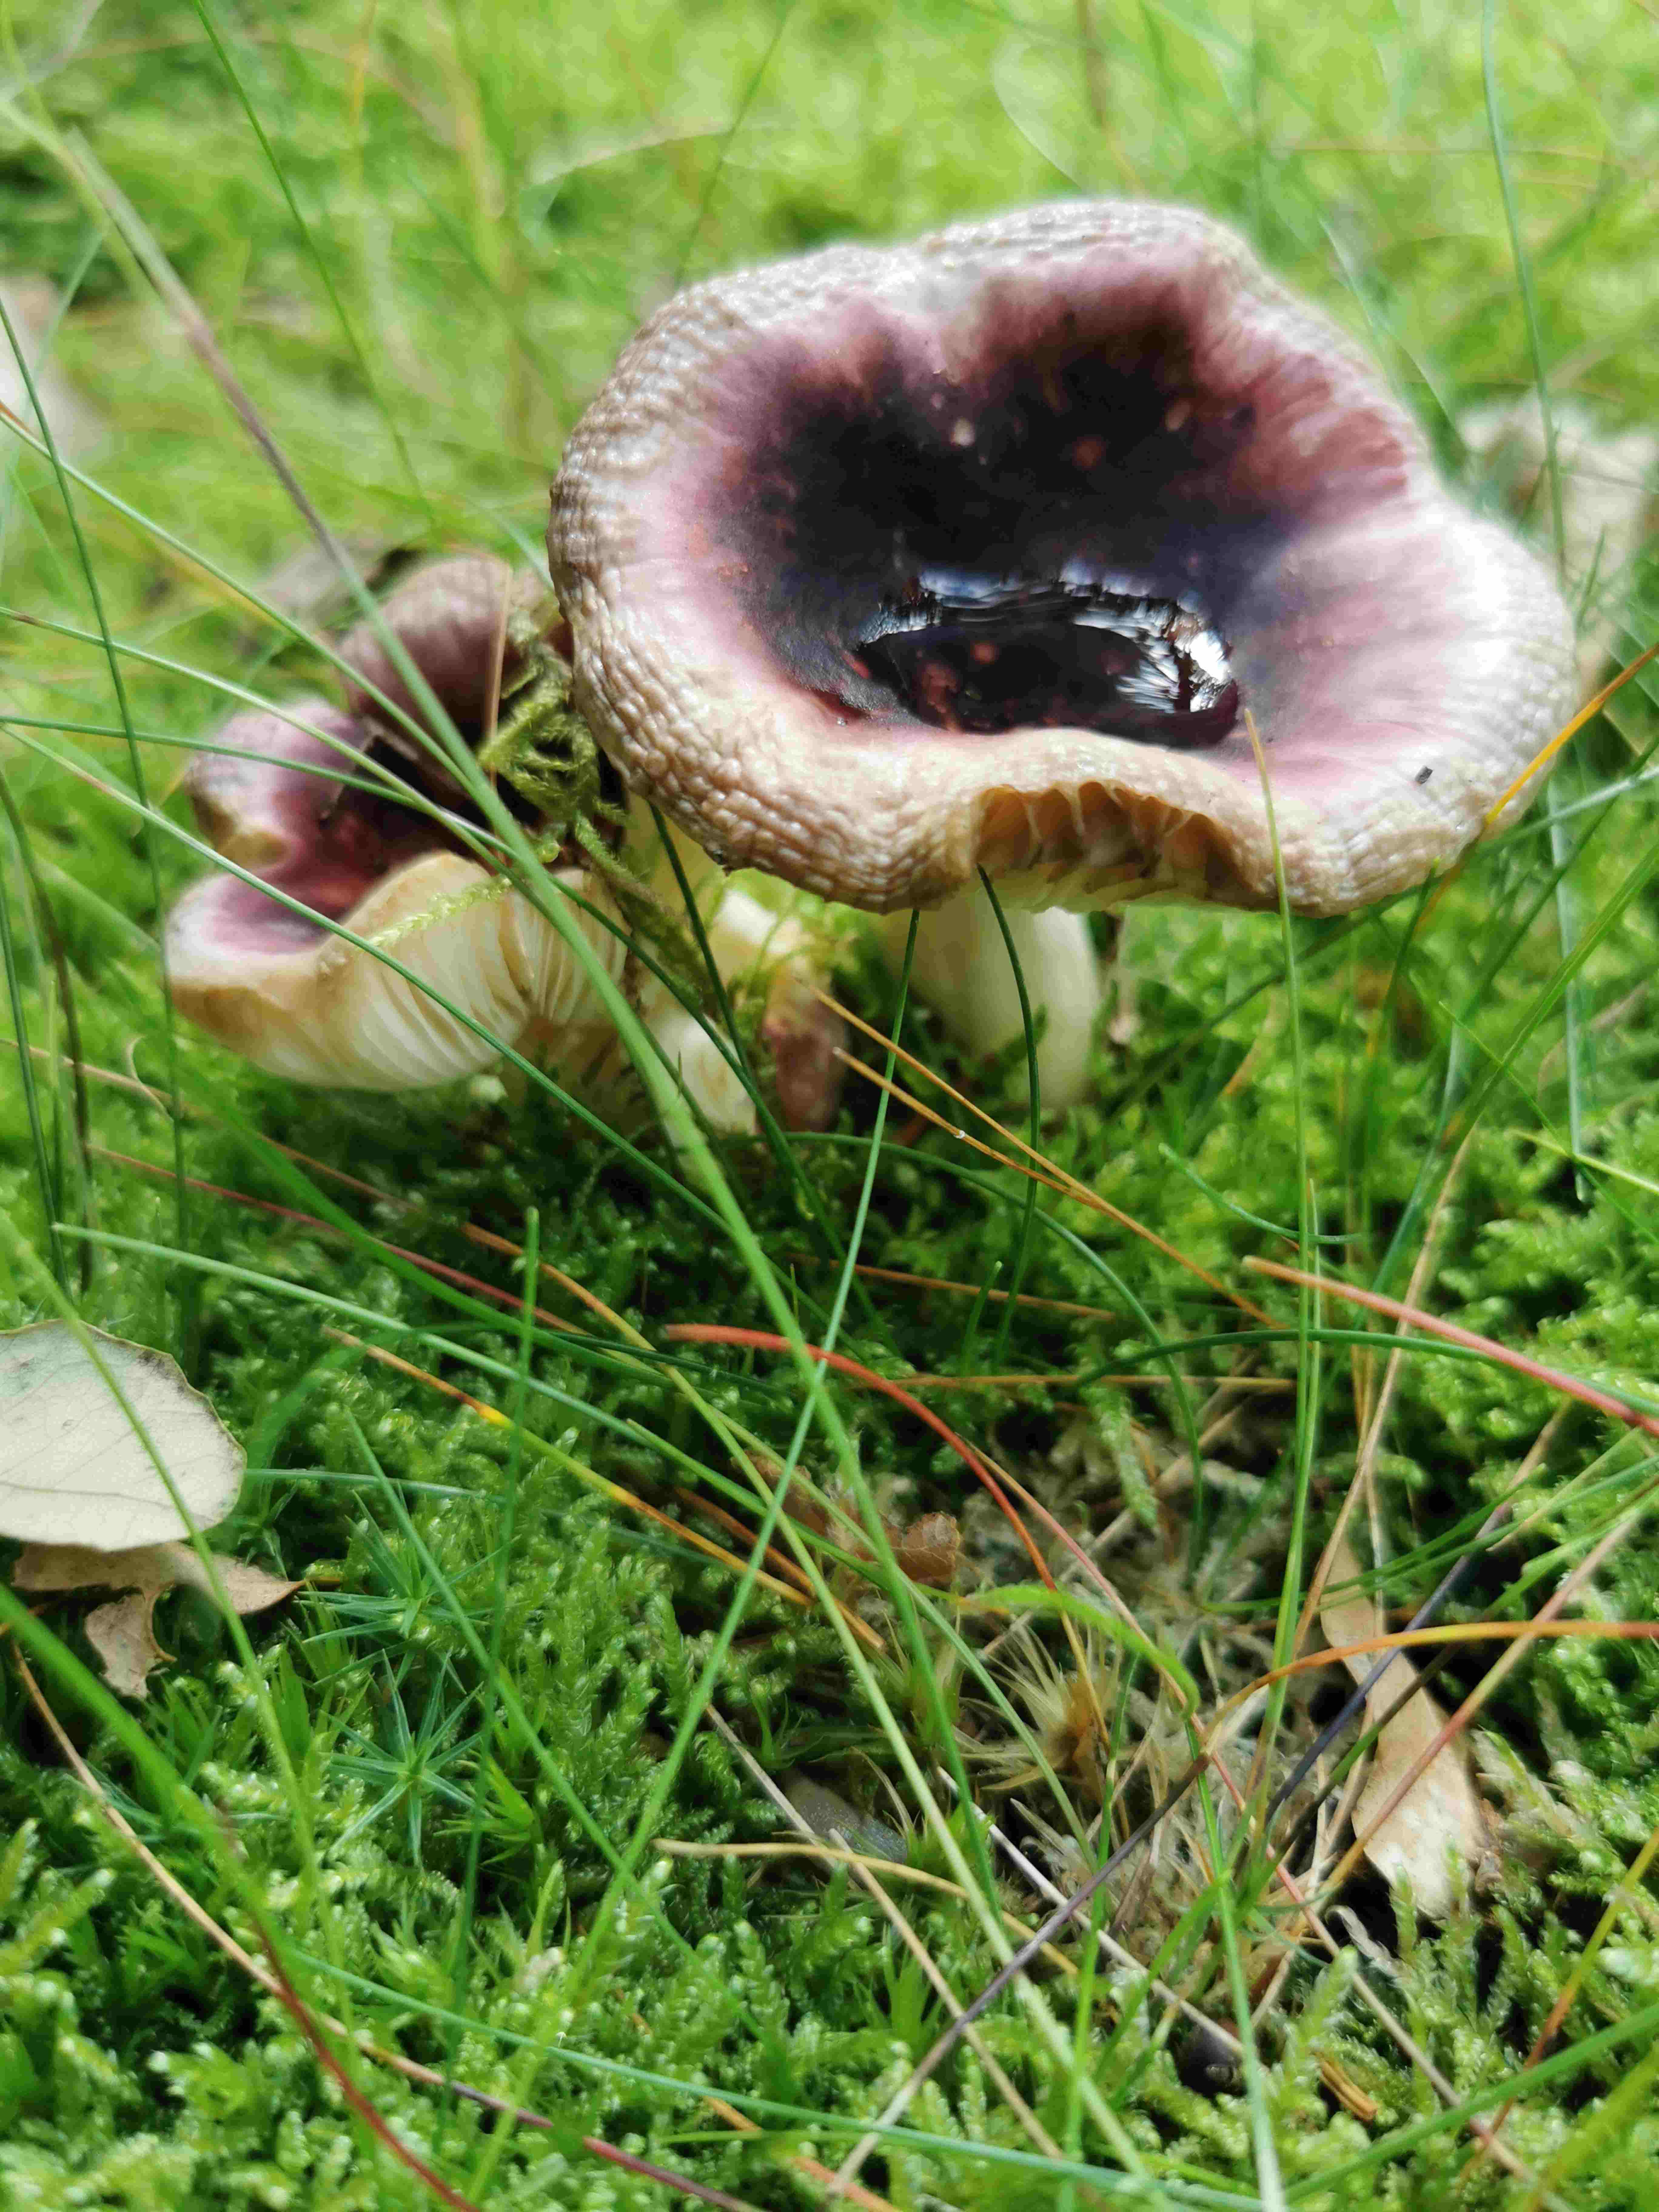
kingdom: Fungi
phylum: Basidiomycota
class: Agaricomycetes
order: Russulales
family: Russulaceae
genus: Russula
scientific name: Russula
